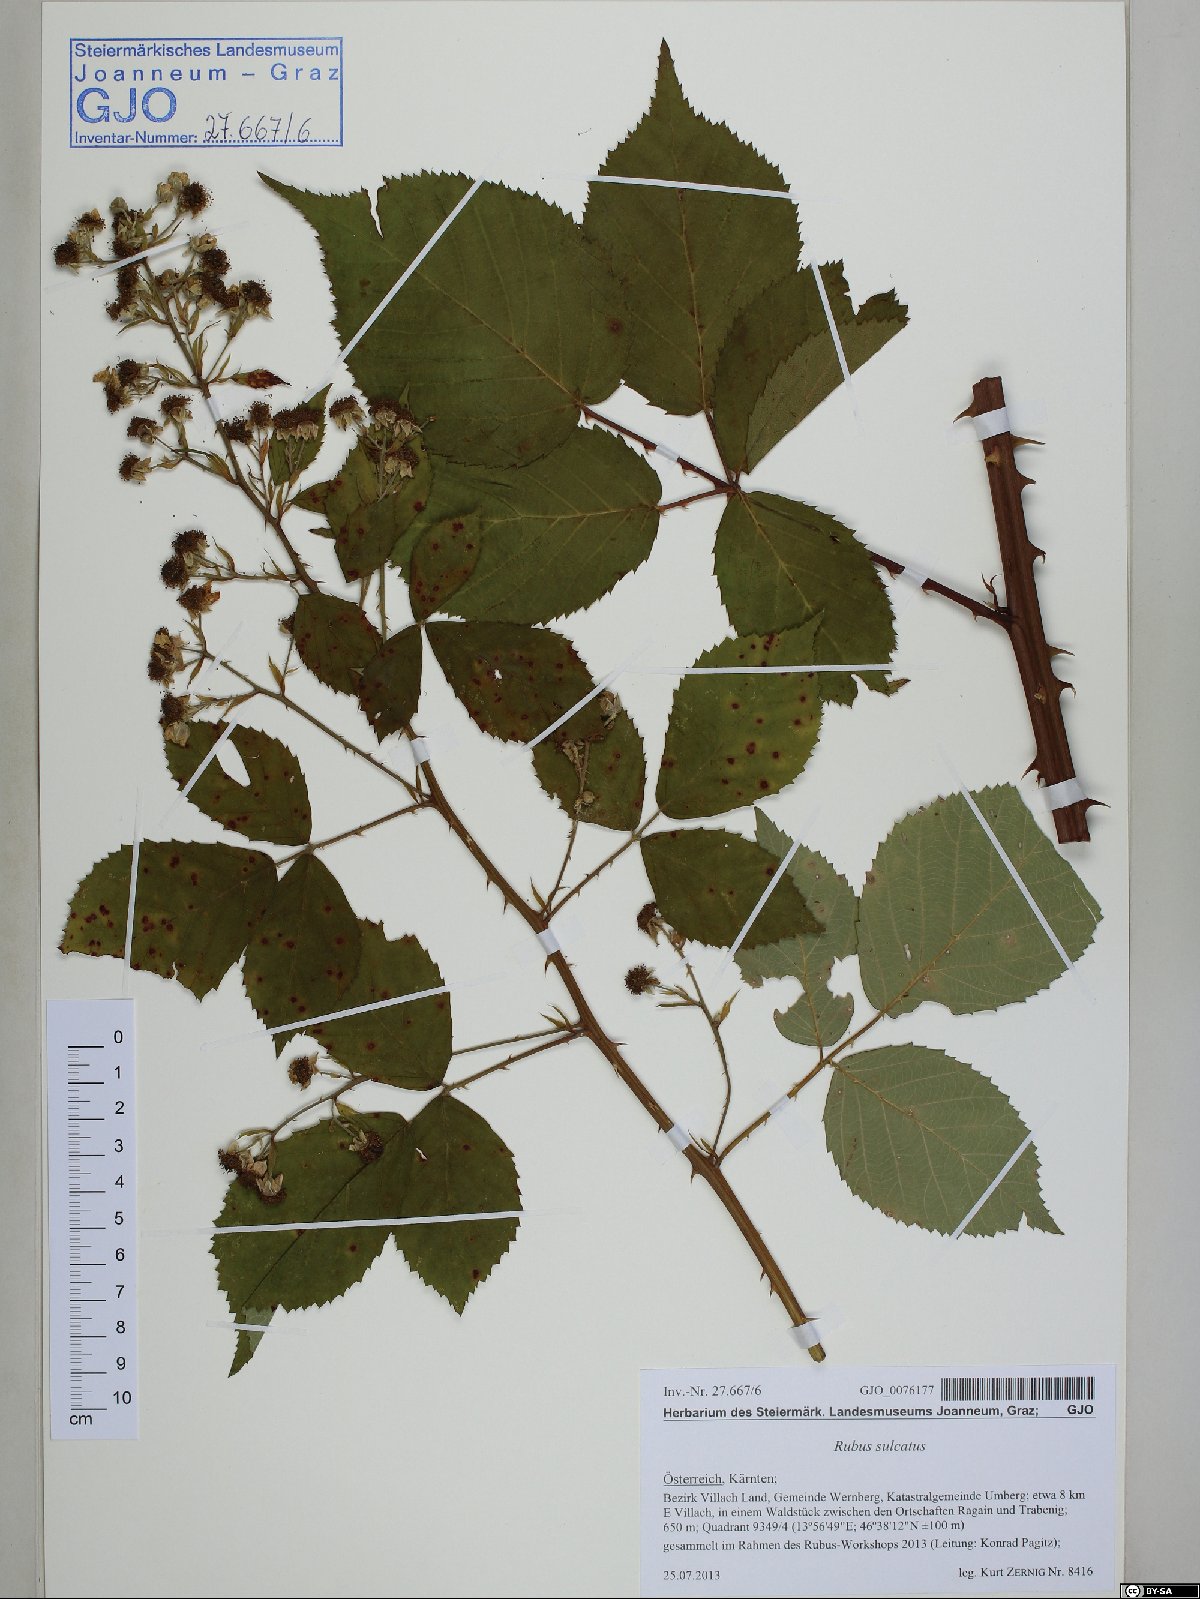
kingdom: Plantae
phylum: Tracheophyta
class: Magnoliopsida
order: Rosales
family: Rosaceae
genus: Rubus
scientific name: Rubus sulcatus
